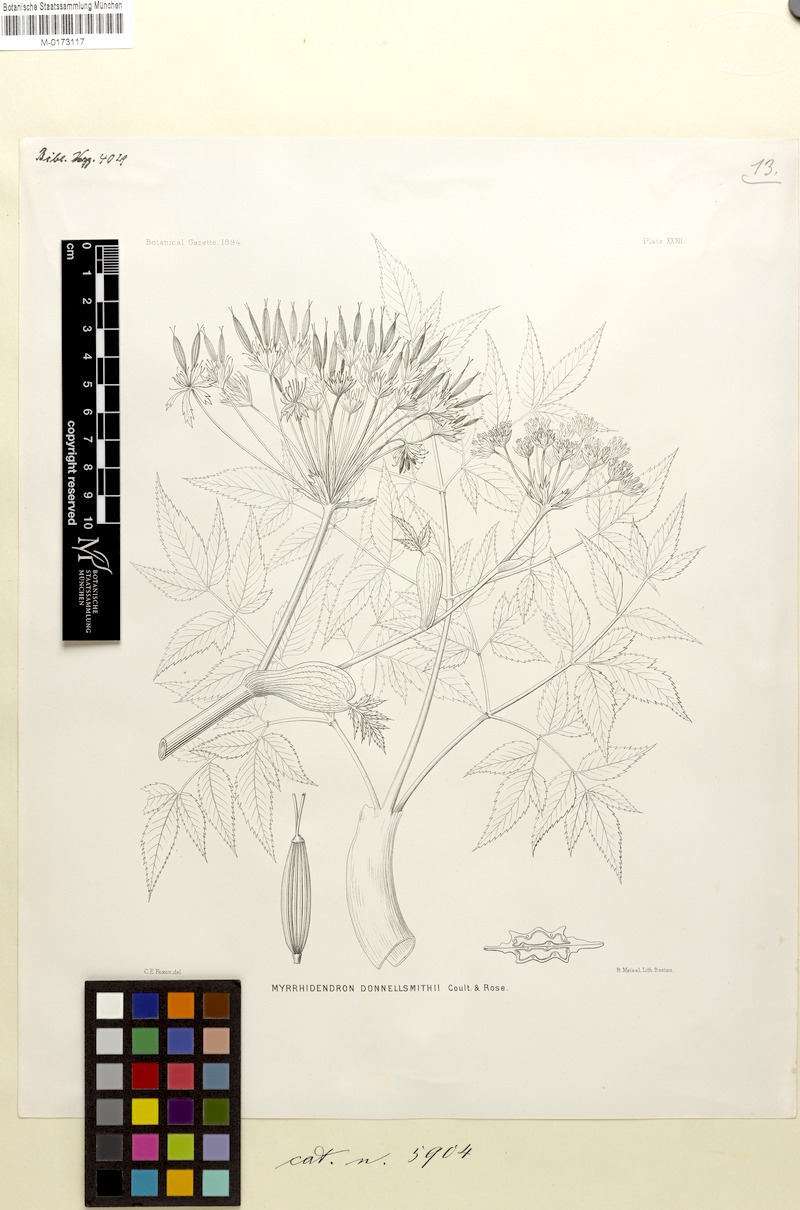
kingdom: Plantae
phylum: Tracheophyta
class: Magnoliopsida
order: Apiales
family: Apiaceae
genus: Myrrhidendron
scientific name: Myrrhidendron donnellsmithii
